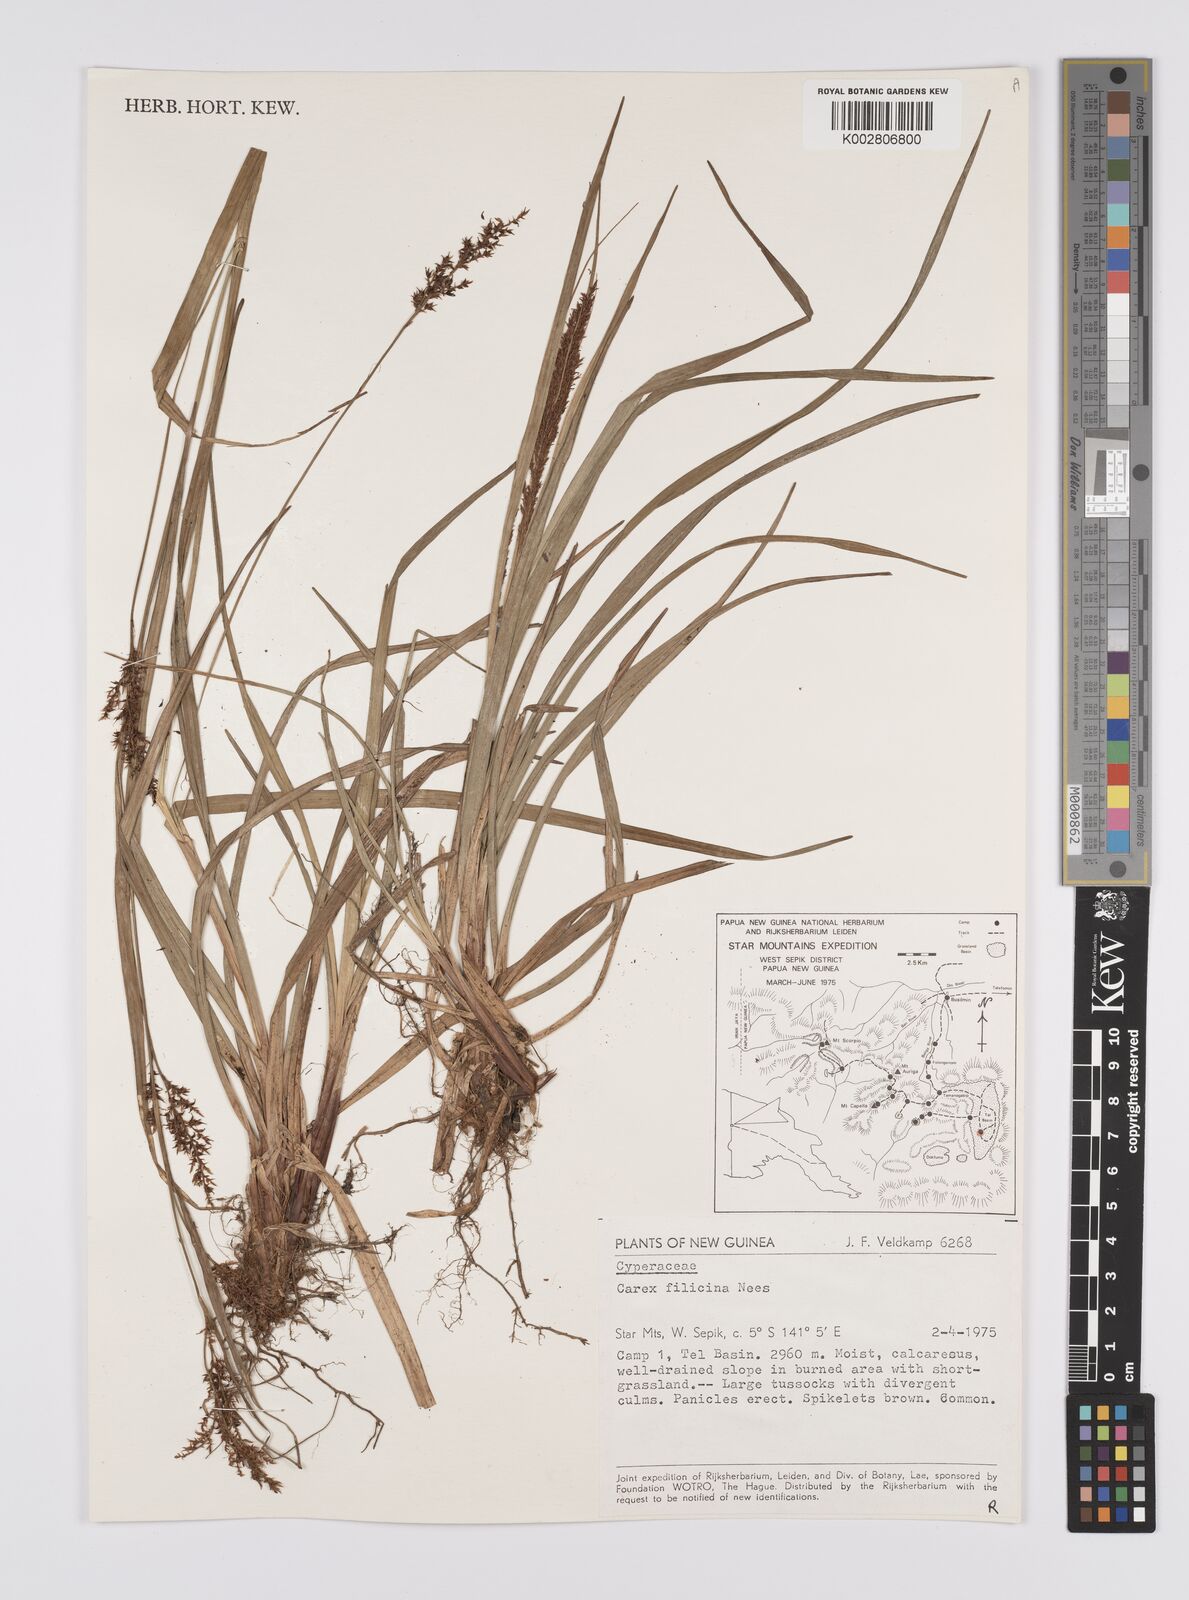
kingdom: Plantae
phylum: Tracheophyta
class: Liliopsida
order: Poales
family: Cyperaceae
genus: Carex
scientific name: Carex filicina
